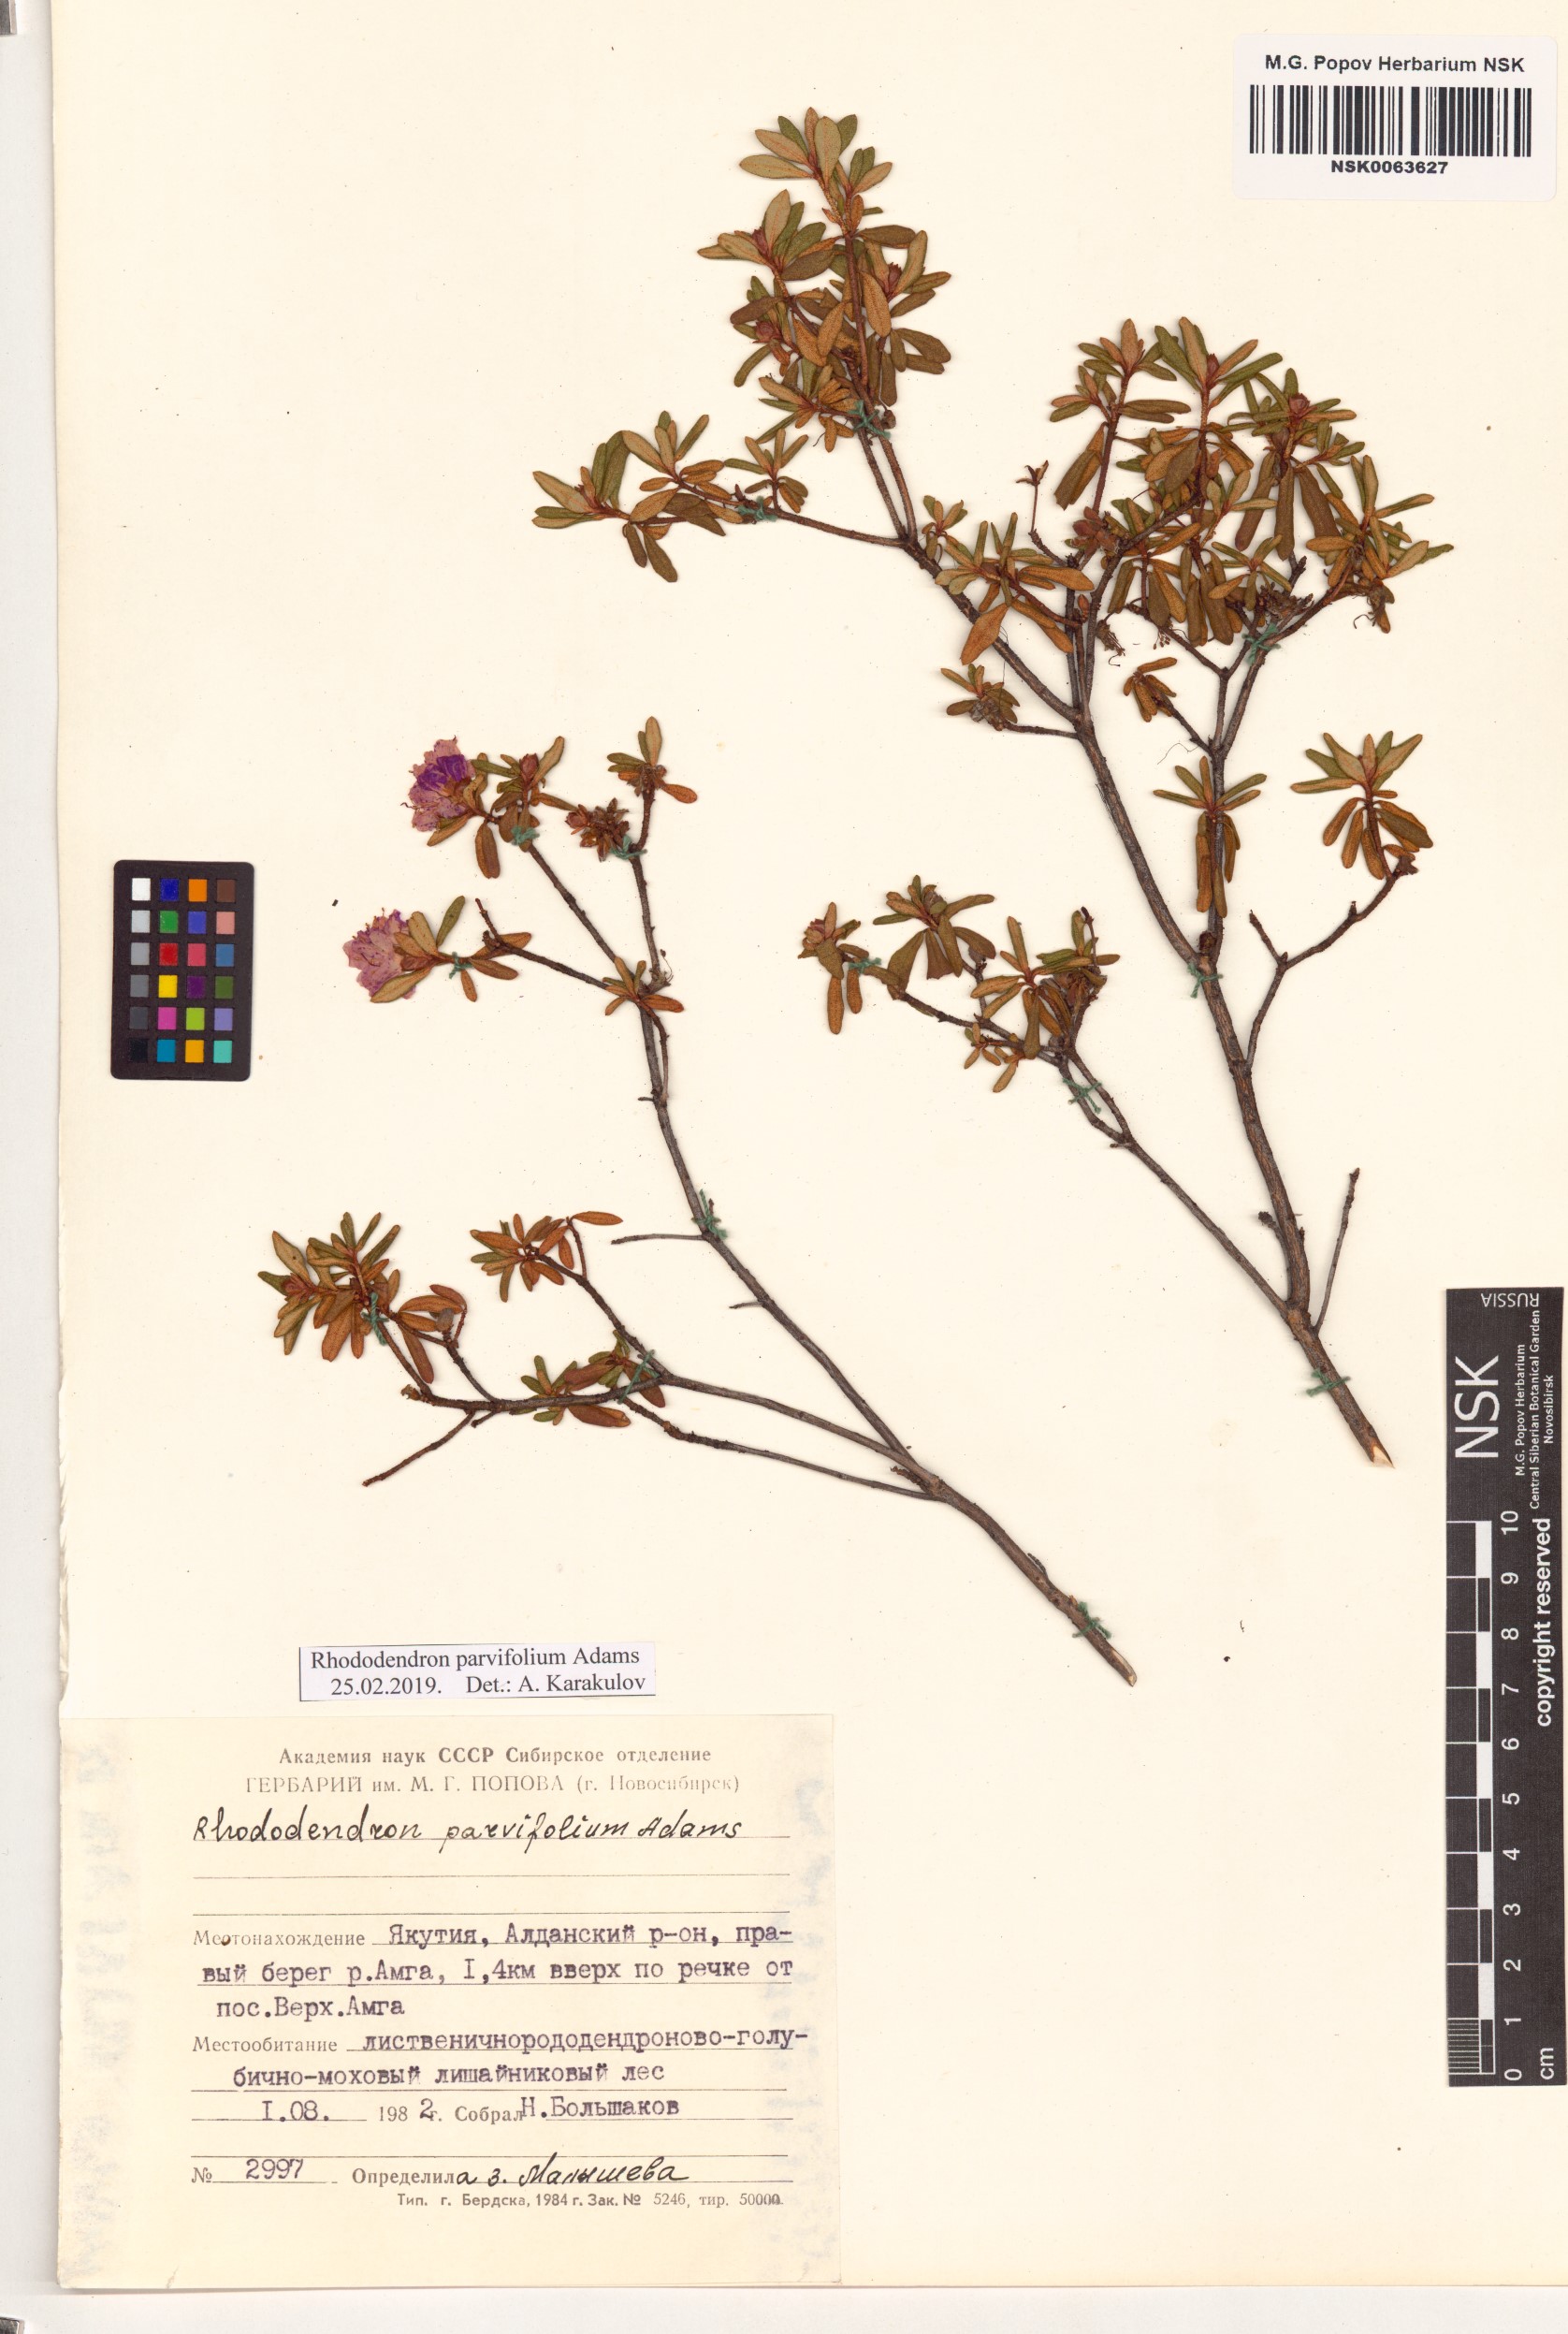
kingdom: Plantae
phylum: Tracheophyta
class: Magnoliopsida
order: Ericales
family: Ericaceae
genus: Rhododendron
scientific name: Rhododendron parvifolium
